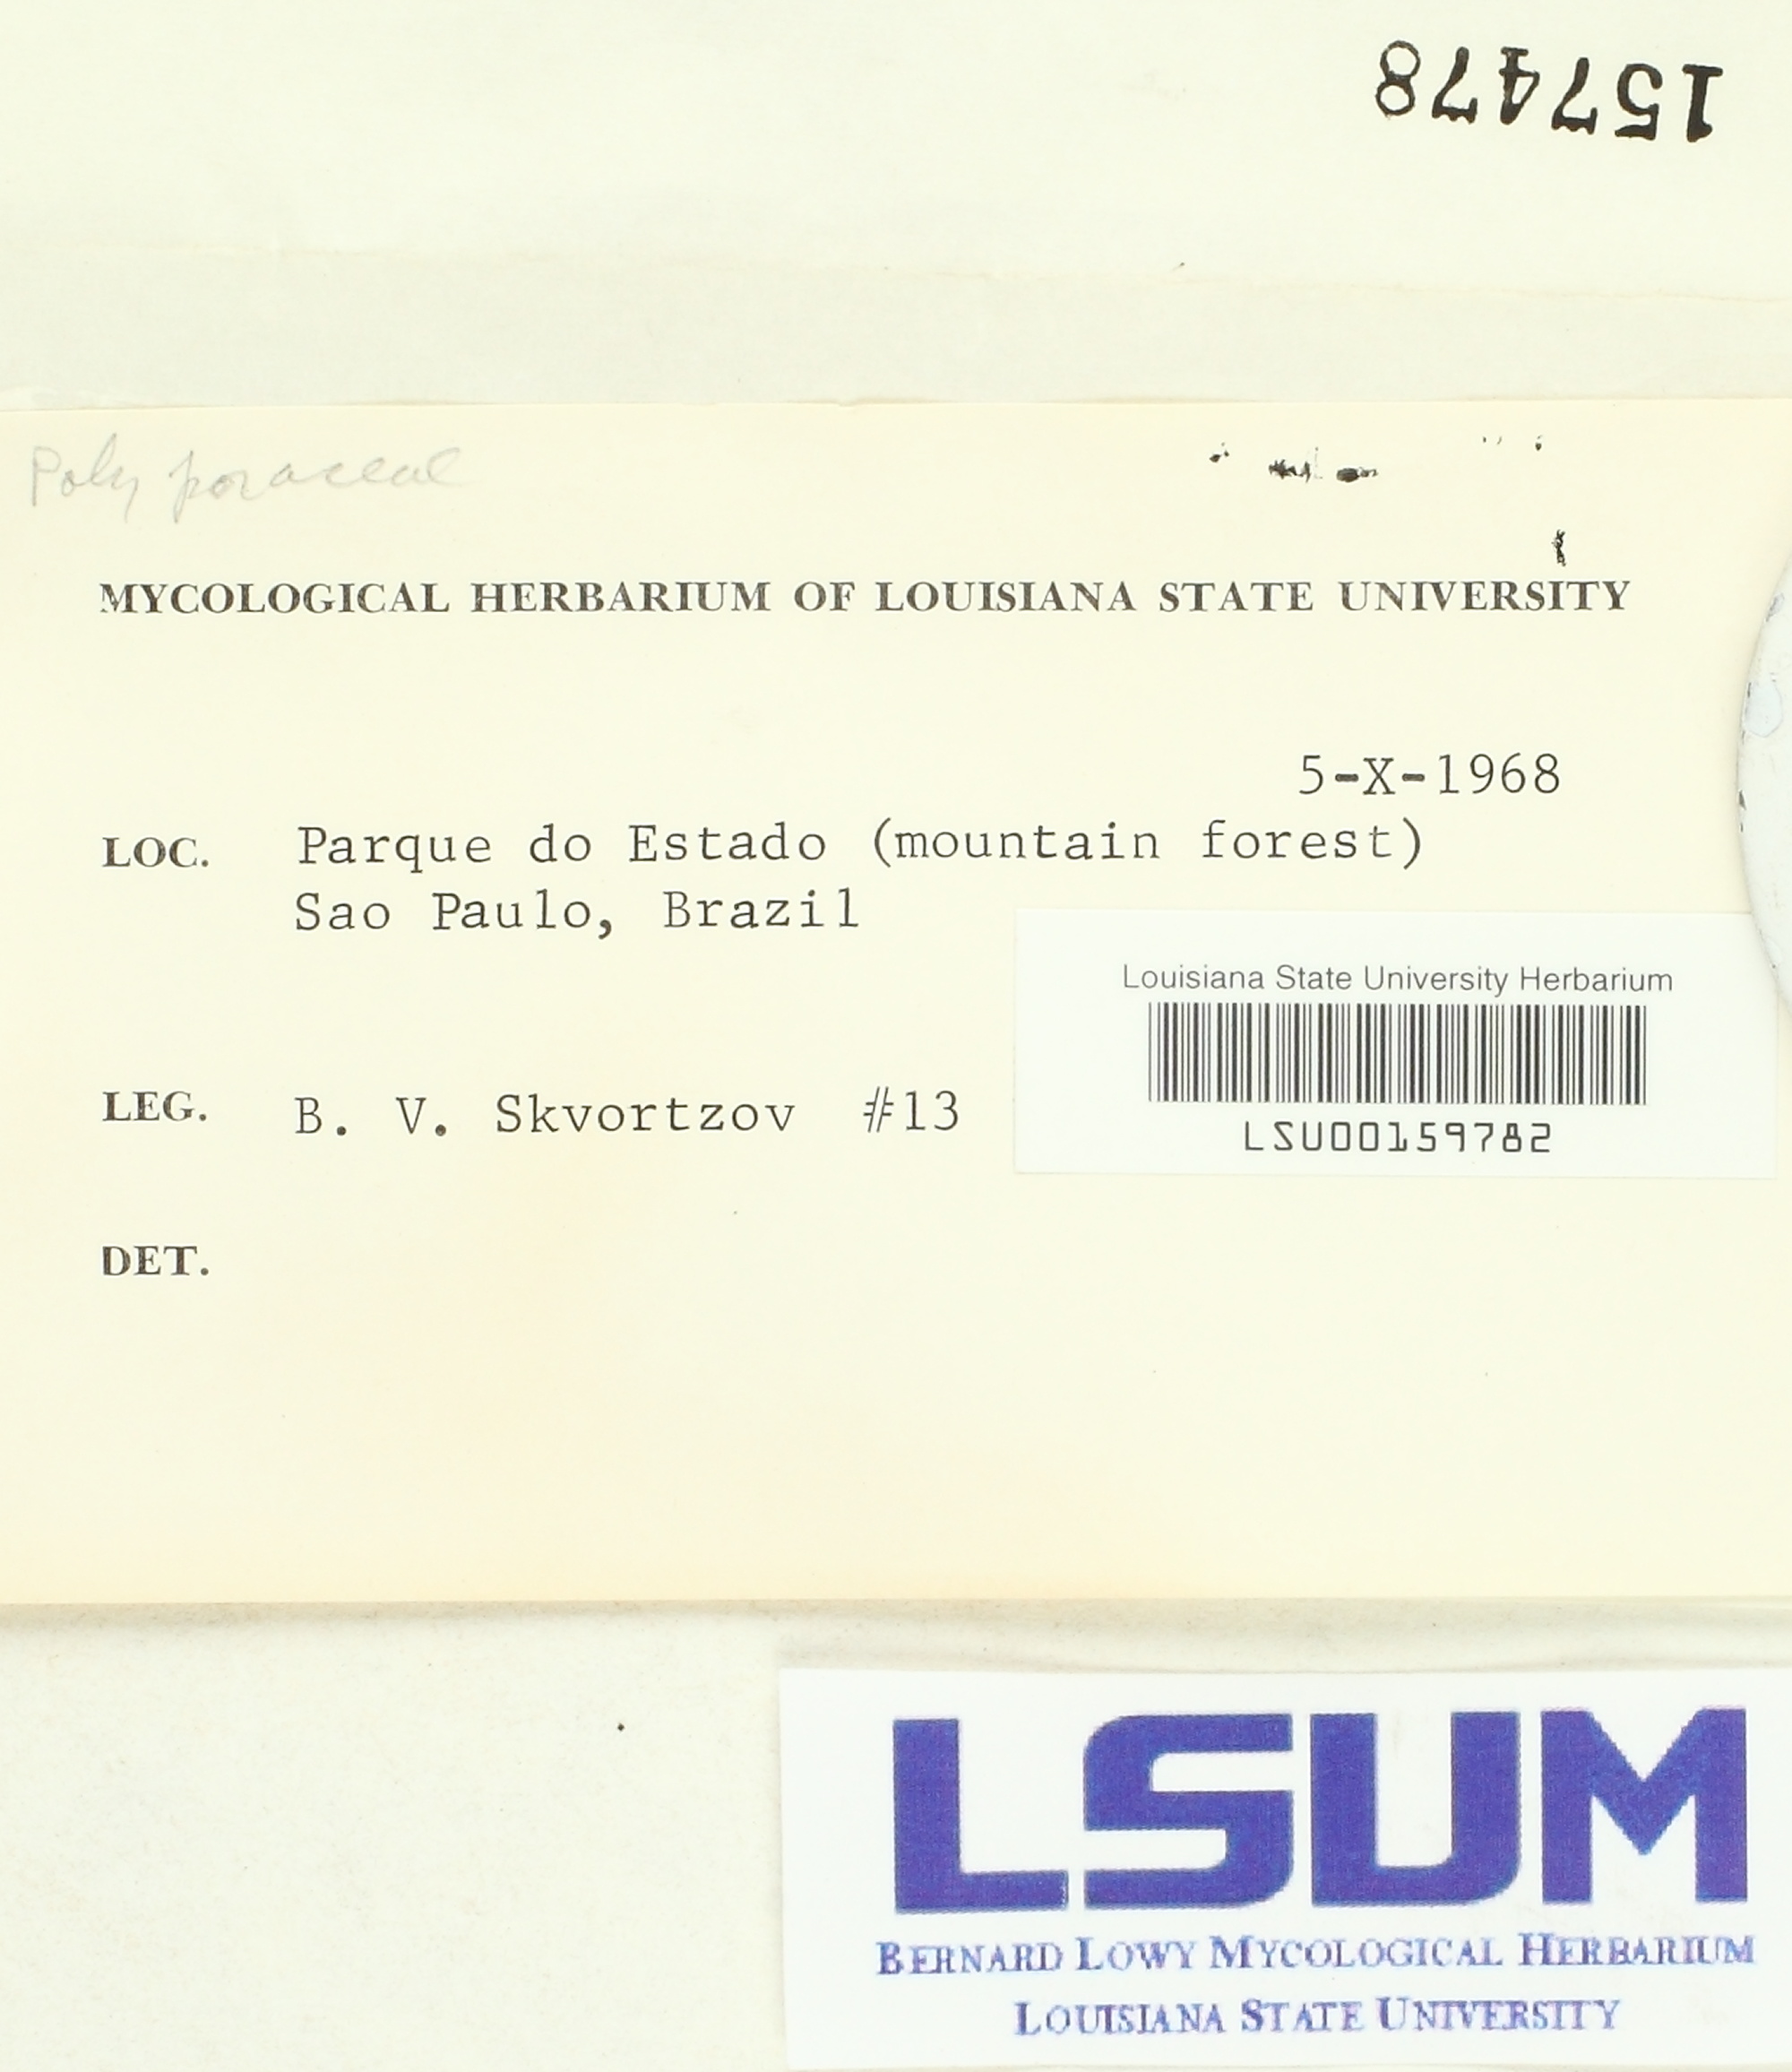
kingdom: Fungi
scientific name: Fungi
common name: Fungi
